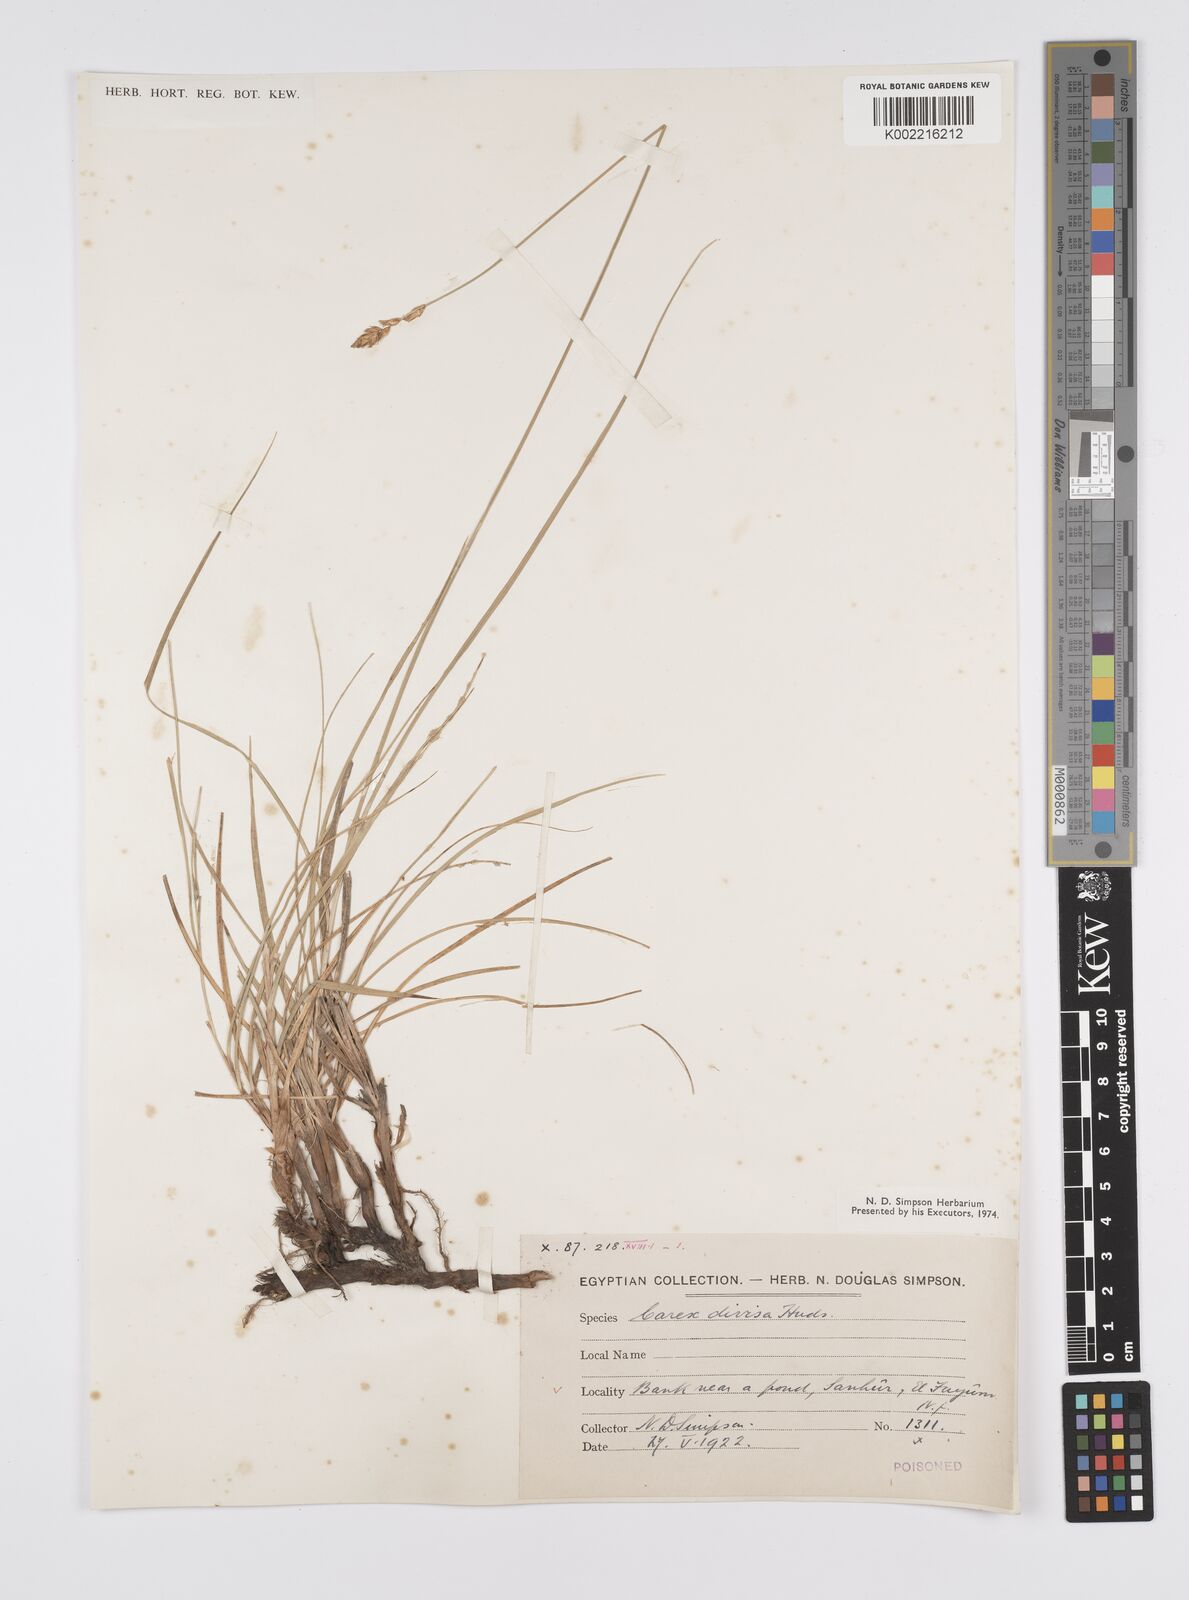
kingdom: Plantae
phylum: Tracheophyta
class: Liliopsida
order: Poales
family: Cyperaceae
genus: Carex
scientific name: Carex divisa
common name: Divided sedge
